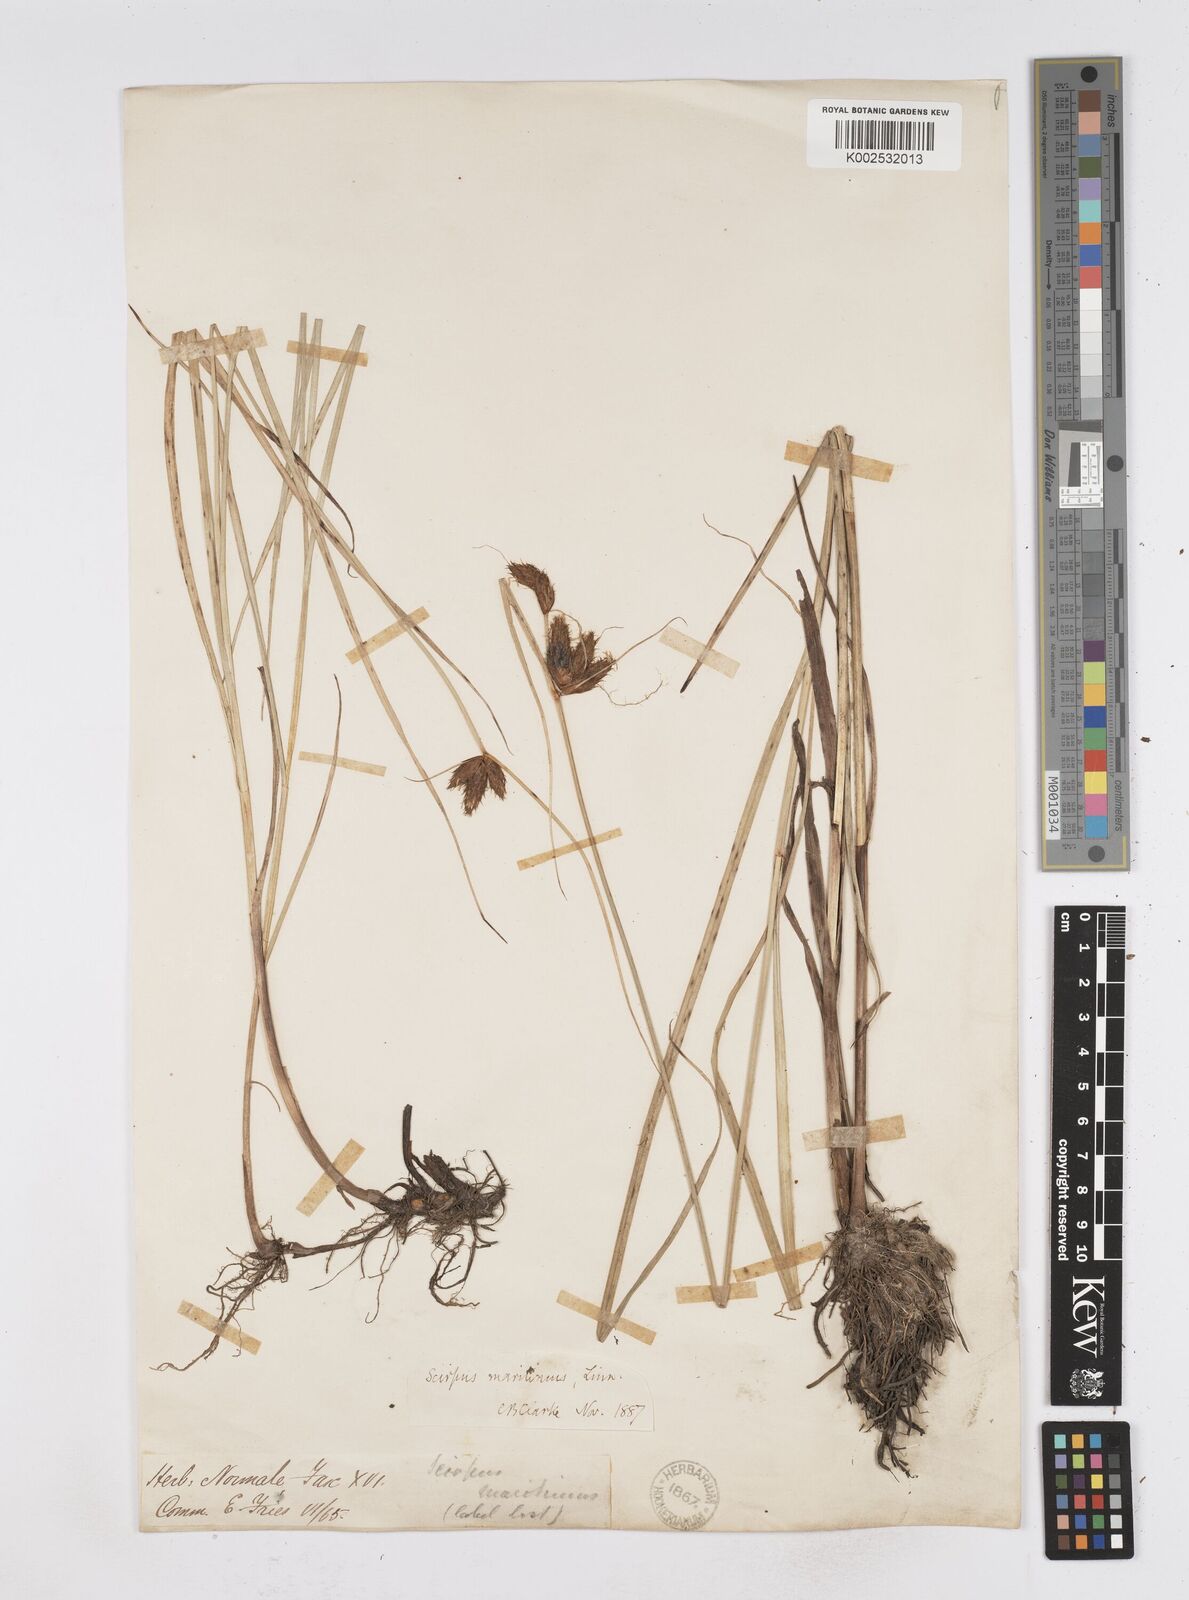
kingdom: Plantae
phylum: Tracheophyta
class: Liliopsida
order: Poales
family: Cyperaceae
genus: Bolboschoenus
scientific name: Bolboschoenus maritimus
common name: Sea club-rush
